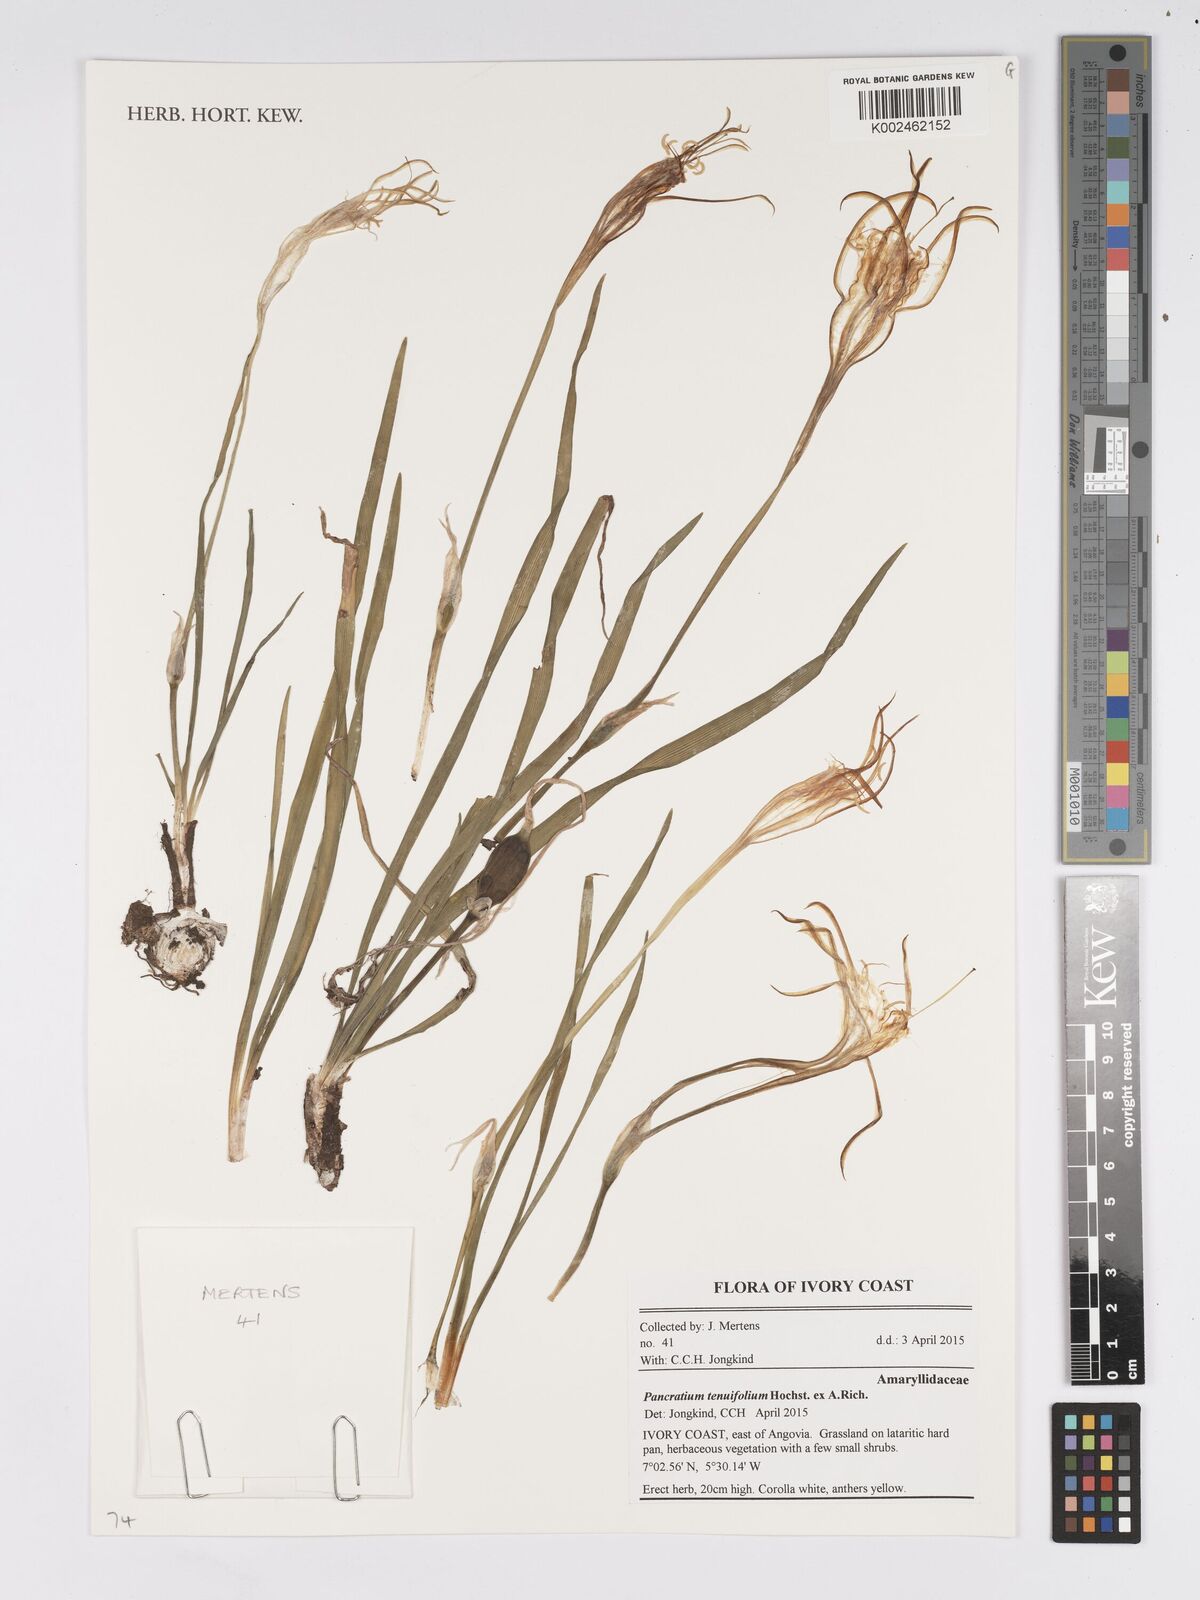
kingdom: Plantae
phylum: Tracheophyta
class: Liliopsida
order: Asparagales
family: Amaryllidaceae
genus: Pancratium
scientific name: Pancratium tenuifolium
